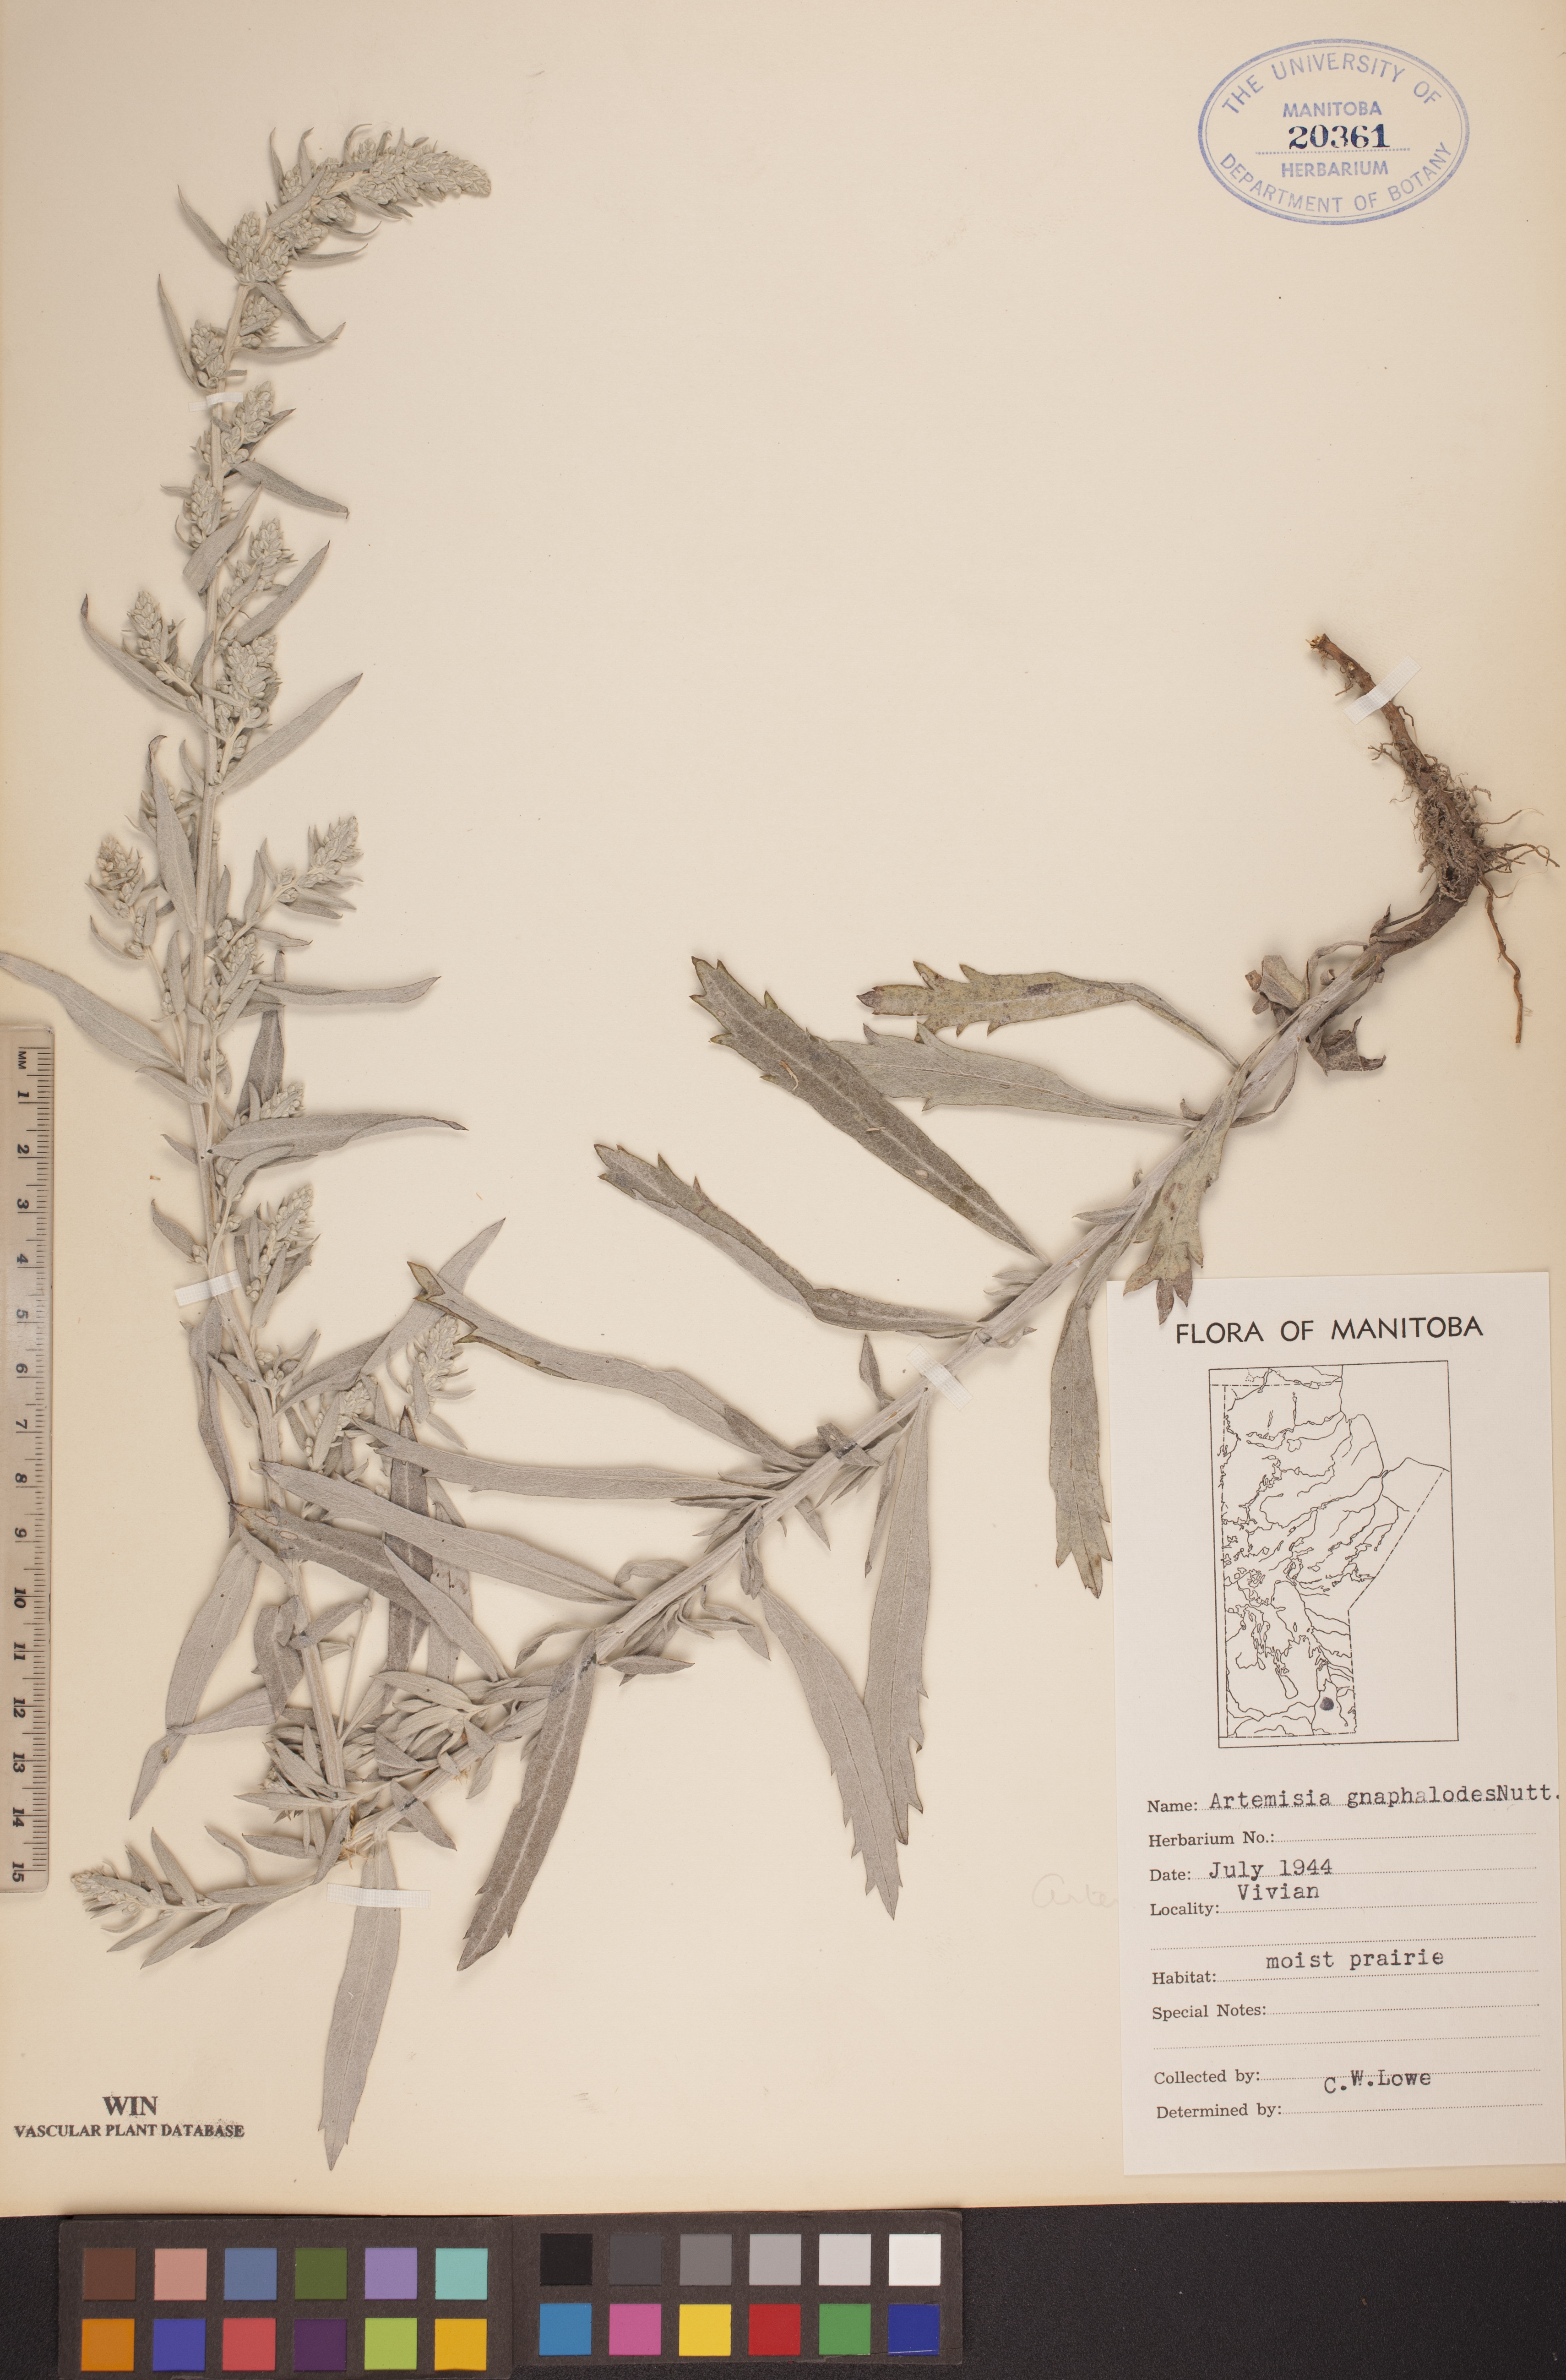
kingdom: Plantae
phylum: Tracheophyta
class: Magnoliopsida
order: Asterales
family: Asteraceae
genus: Artemisia
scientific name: Artemisia ludoviciana
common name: Western mugwort
